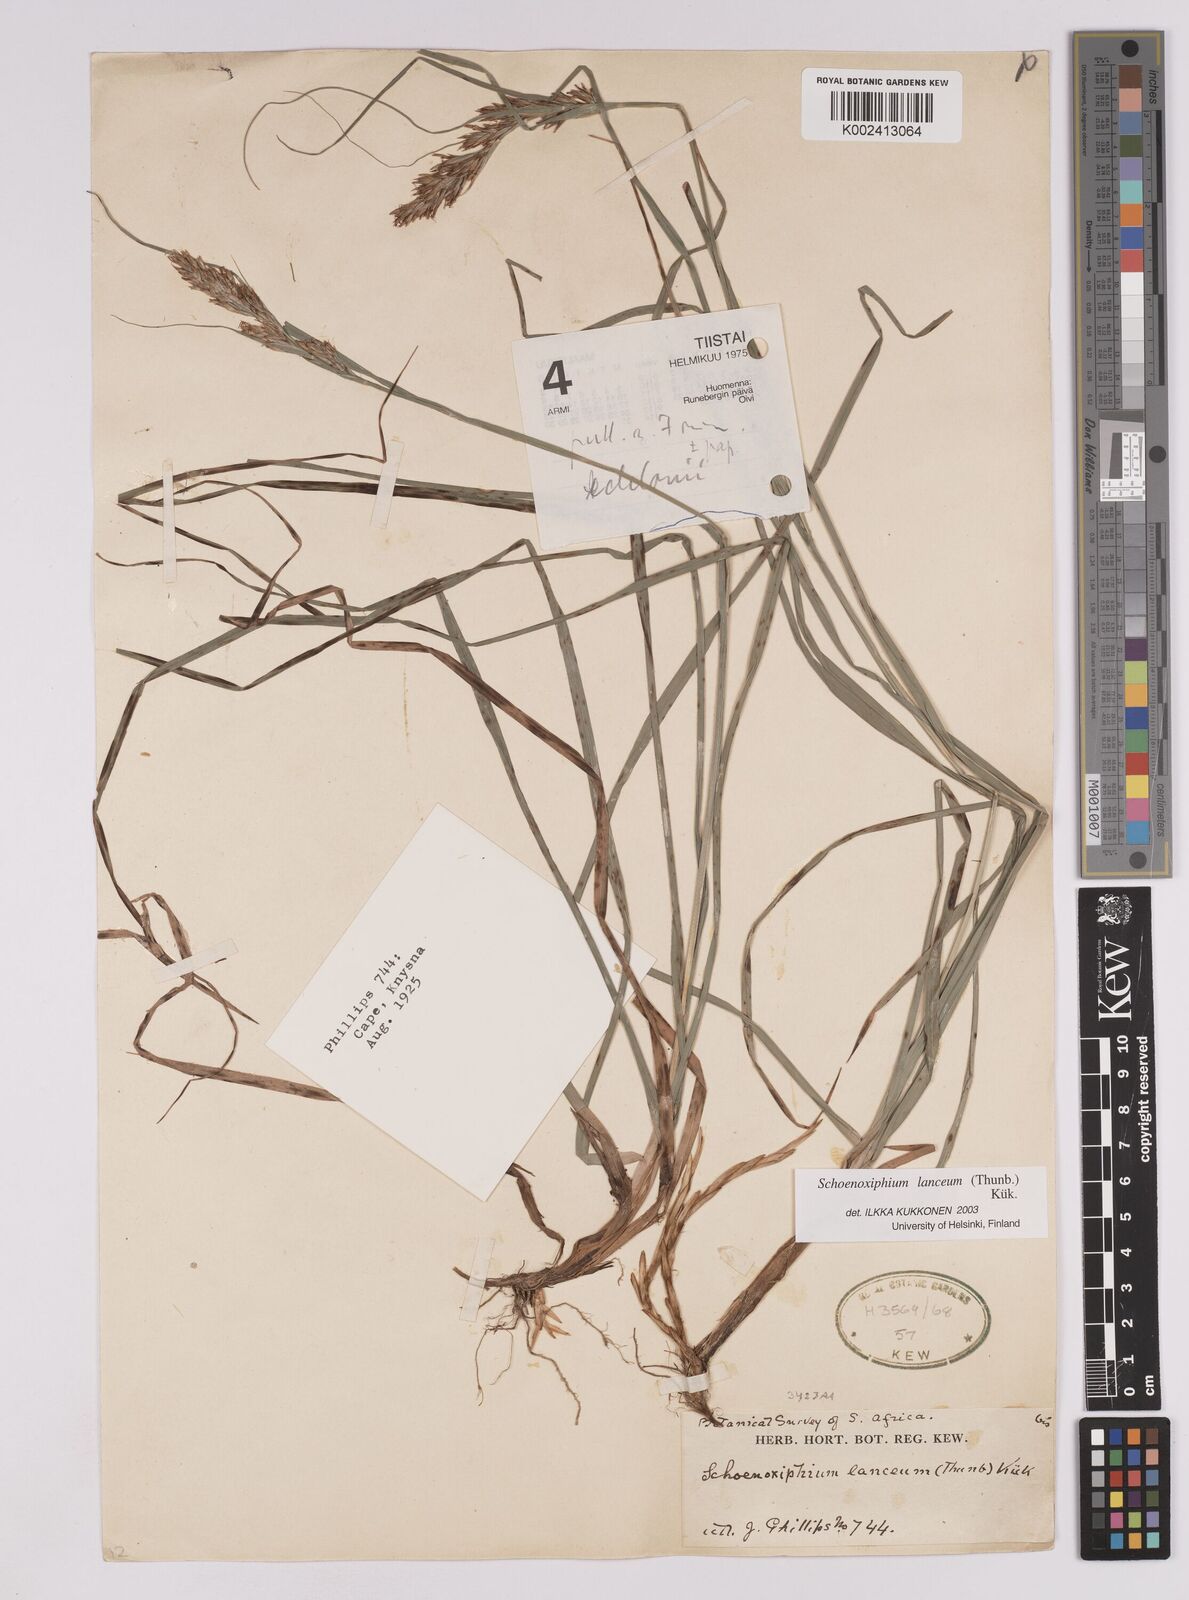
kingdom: Plantae
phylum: Tracheophyta
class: Liliopsida
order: Poales
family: Cyperaceae
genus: Carex
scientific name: Carex lancea
